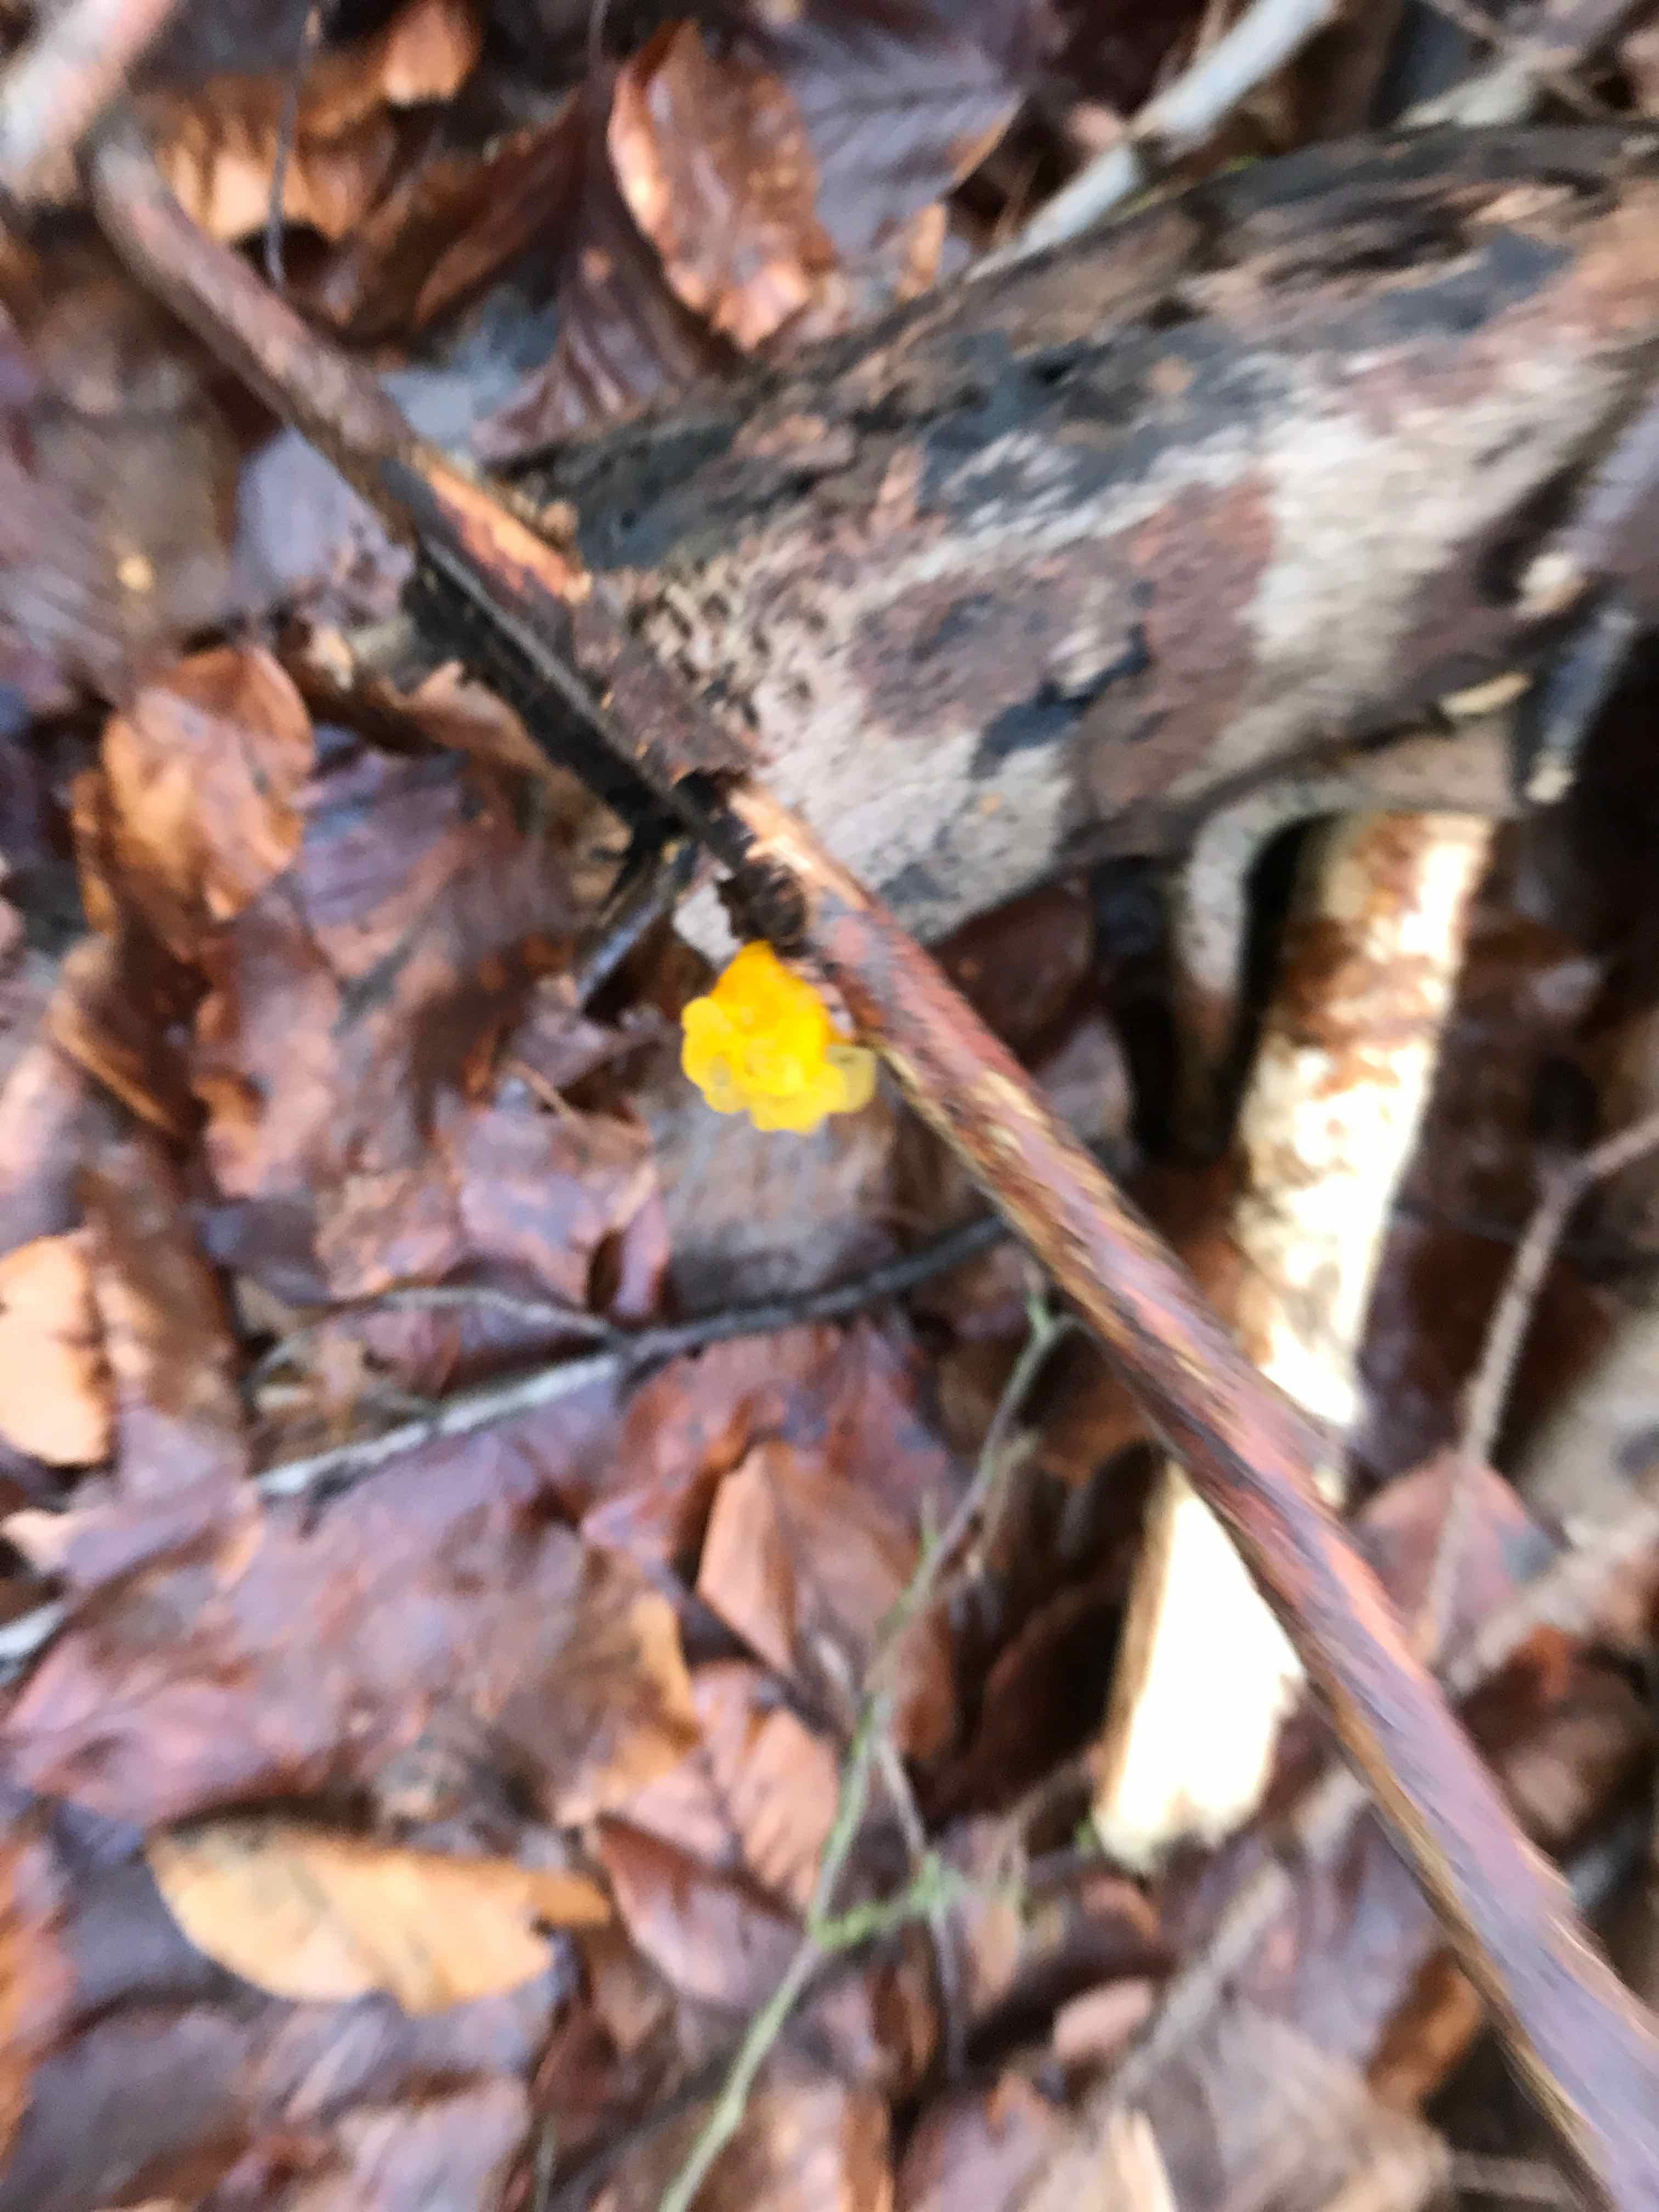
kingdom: Fungi
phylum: Basidiomycota
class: Tremellomycetes
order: Tremellales
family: Tremellaceae
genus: Tremella
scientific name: Tremella mesenterica
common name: gul bævresvamp
